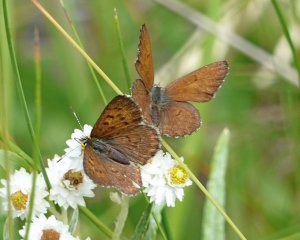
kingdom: Animalia
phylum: Arthropoda
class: Insecta
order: Lepidoptera
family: Lycaenidae
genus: Lycaena
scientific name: Lycaena mariposa
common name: Mariposa Copper
